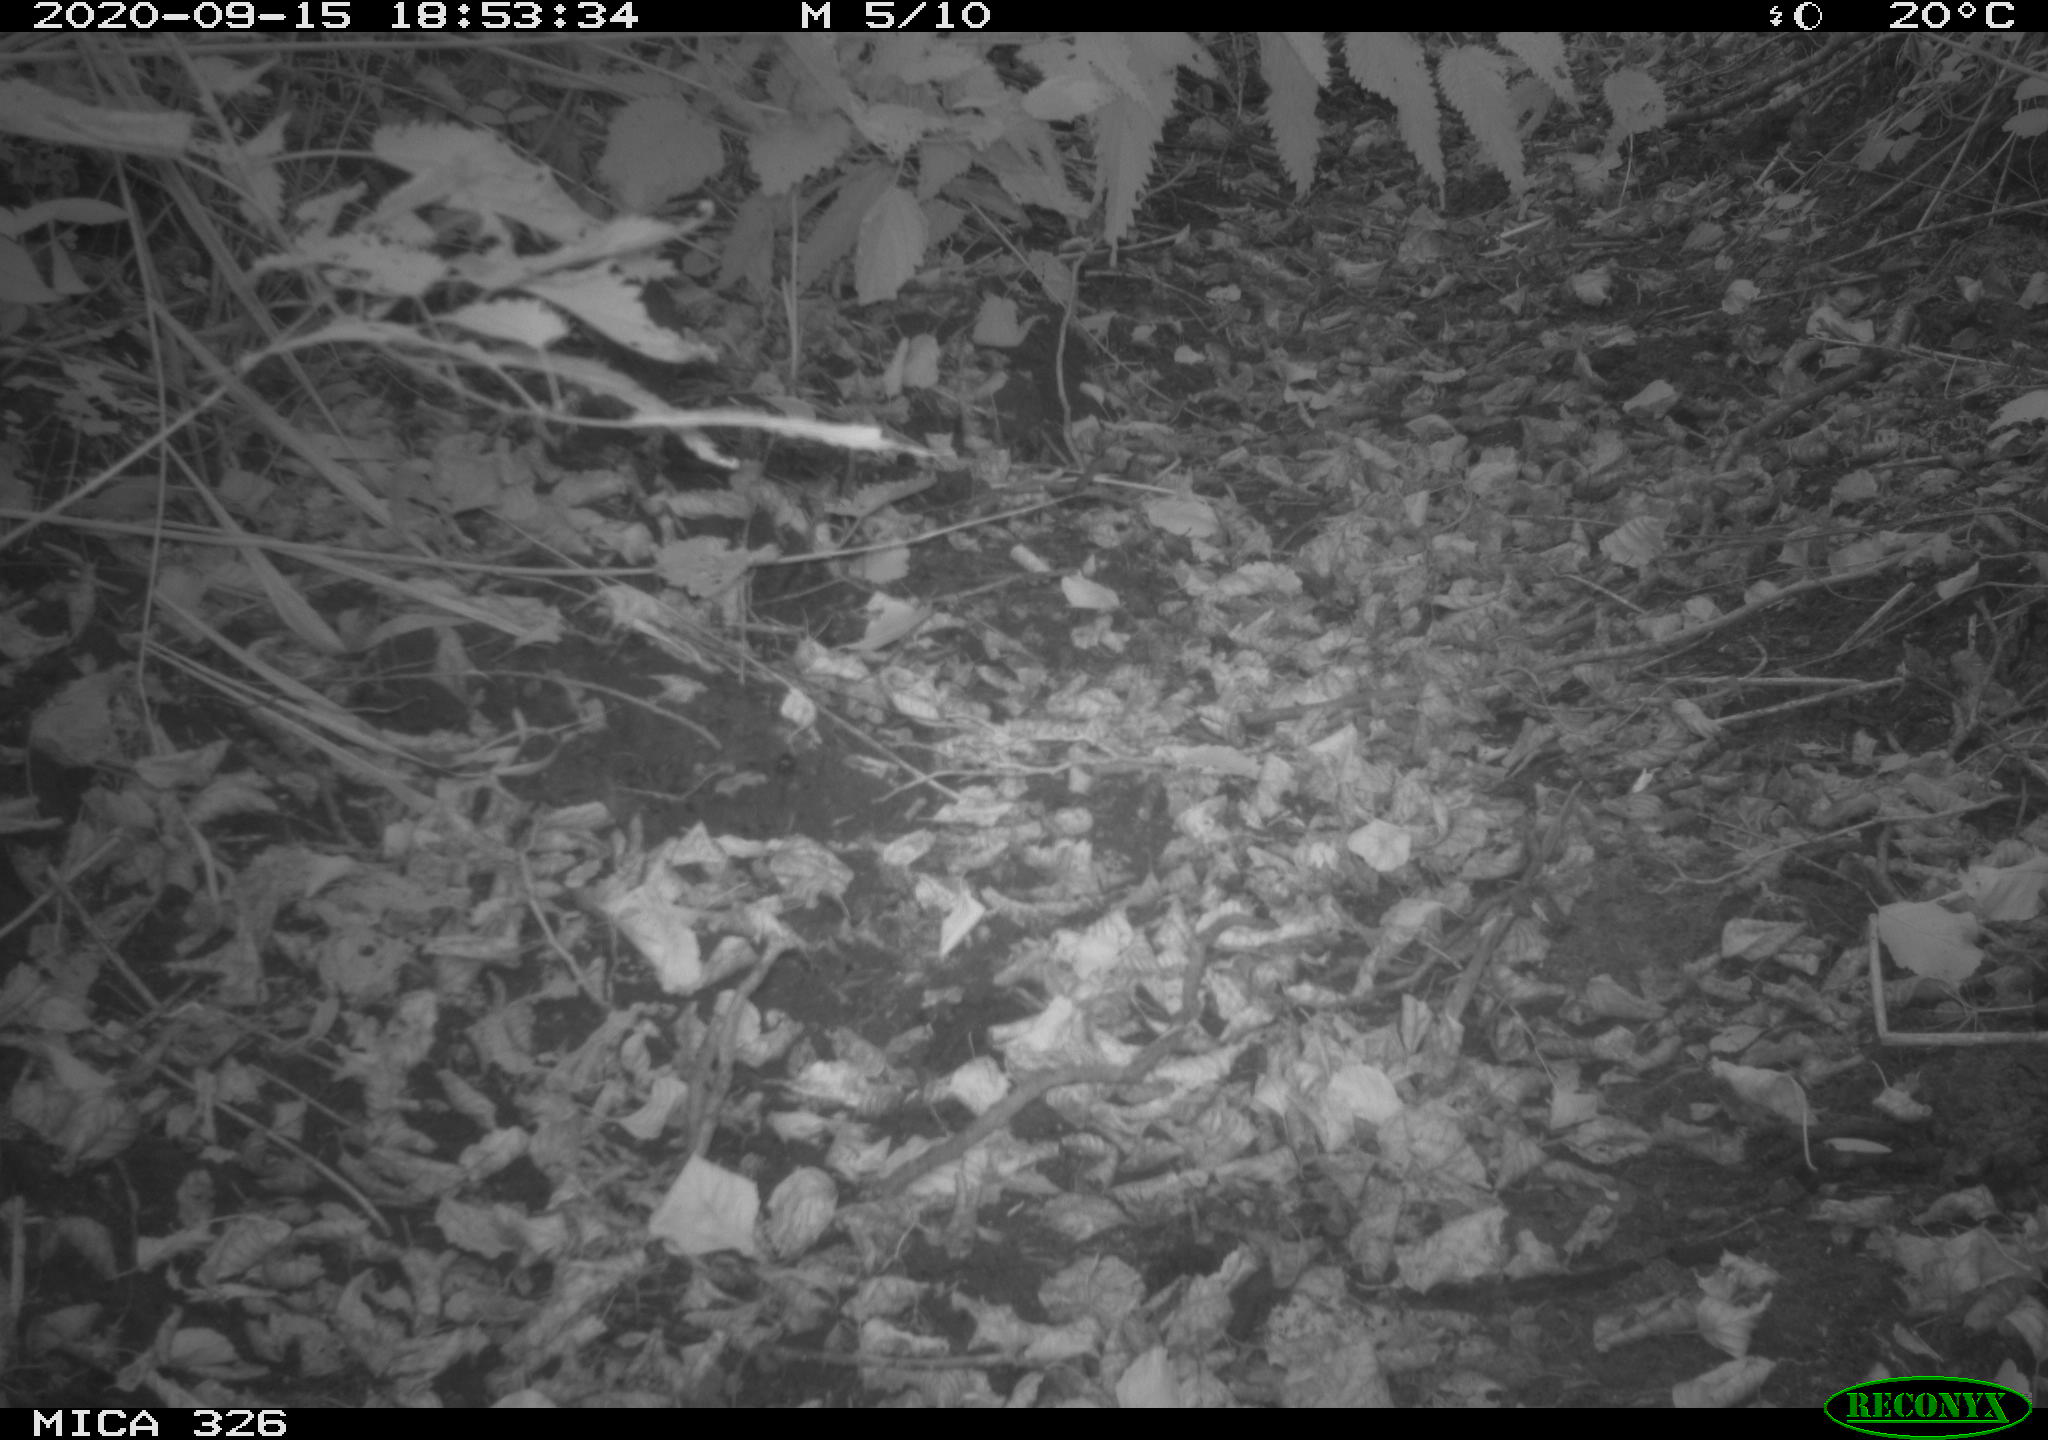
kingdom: Animalia
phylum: Chordata
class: Aves
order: Passeriformes
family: Turdidae
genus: Turdus
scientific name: Turdus philomelos
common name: Song thrush
